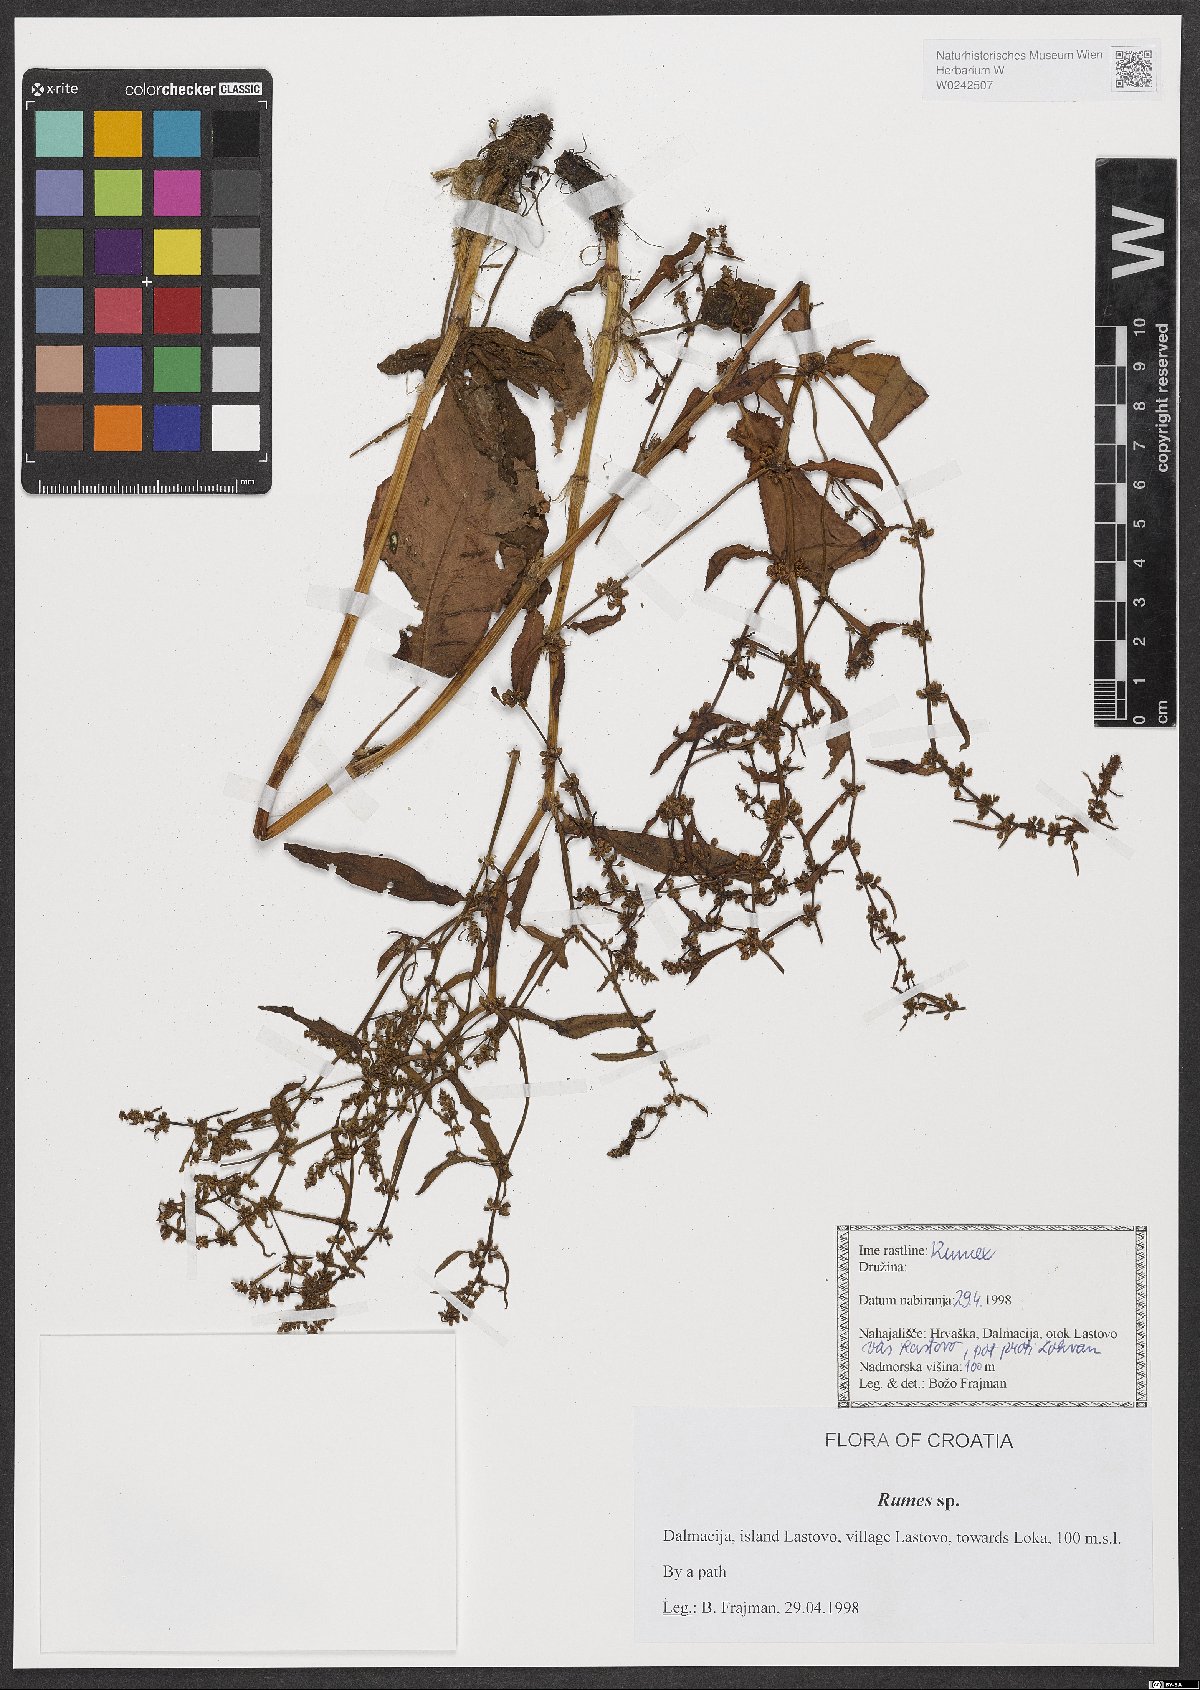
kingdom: Plantae
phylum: Tracheophyta
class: Magnoliopsida
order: Caryophyllales
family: Polygonaceae
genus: Rumex
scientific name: Rumex
